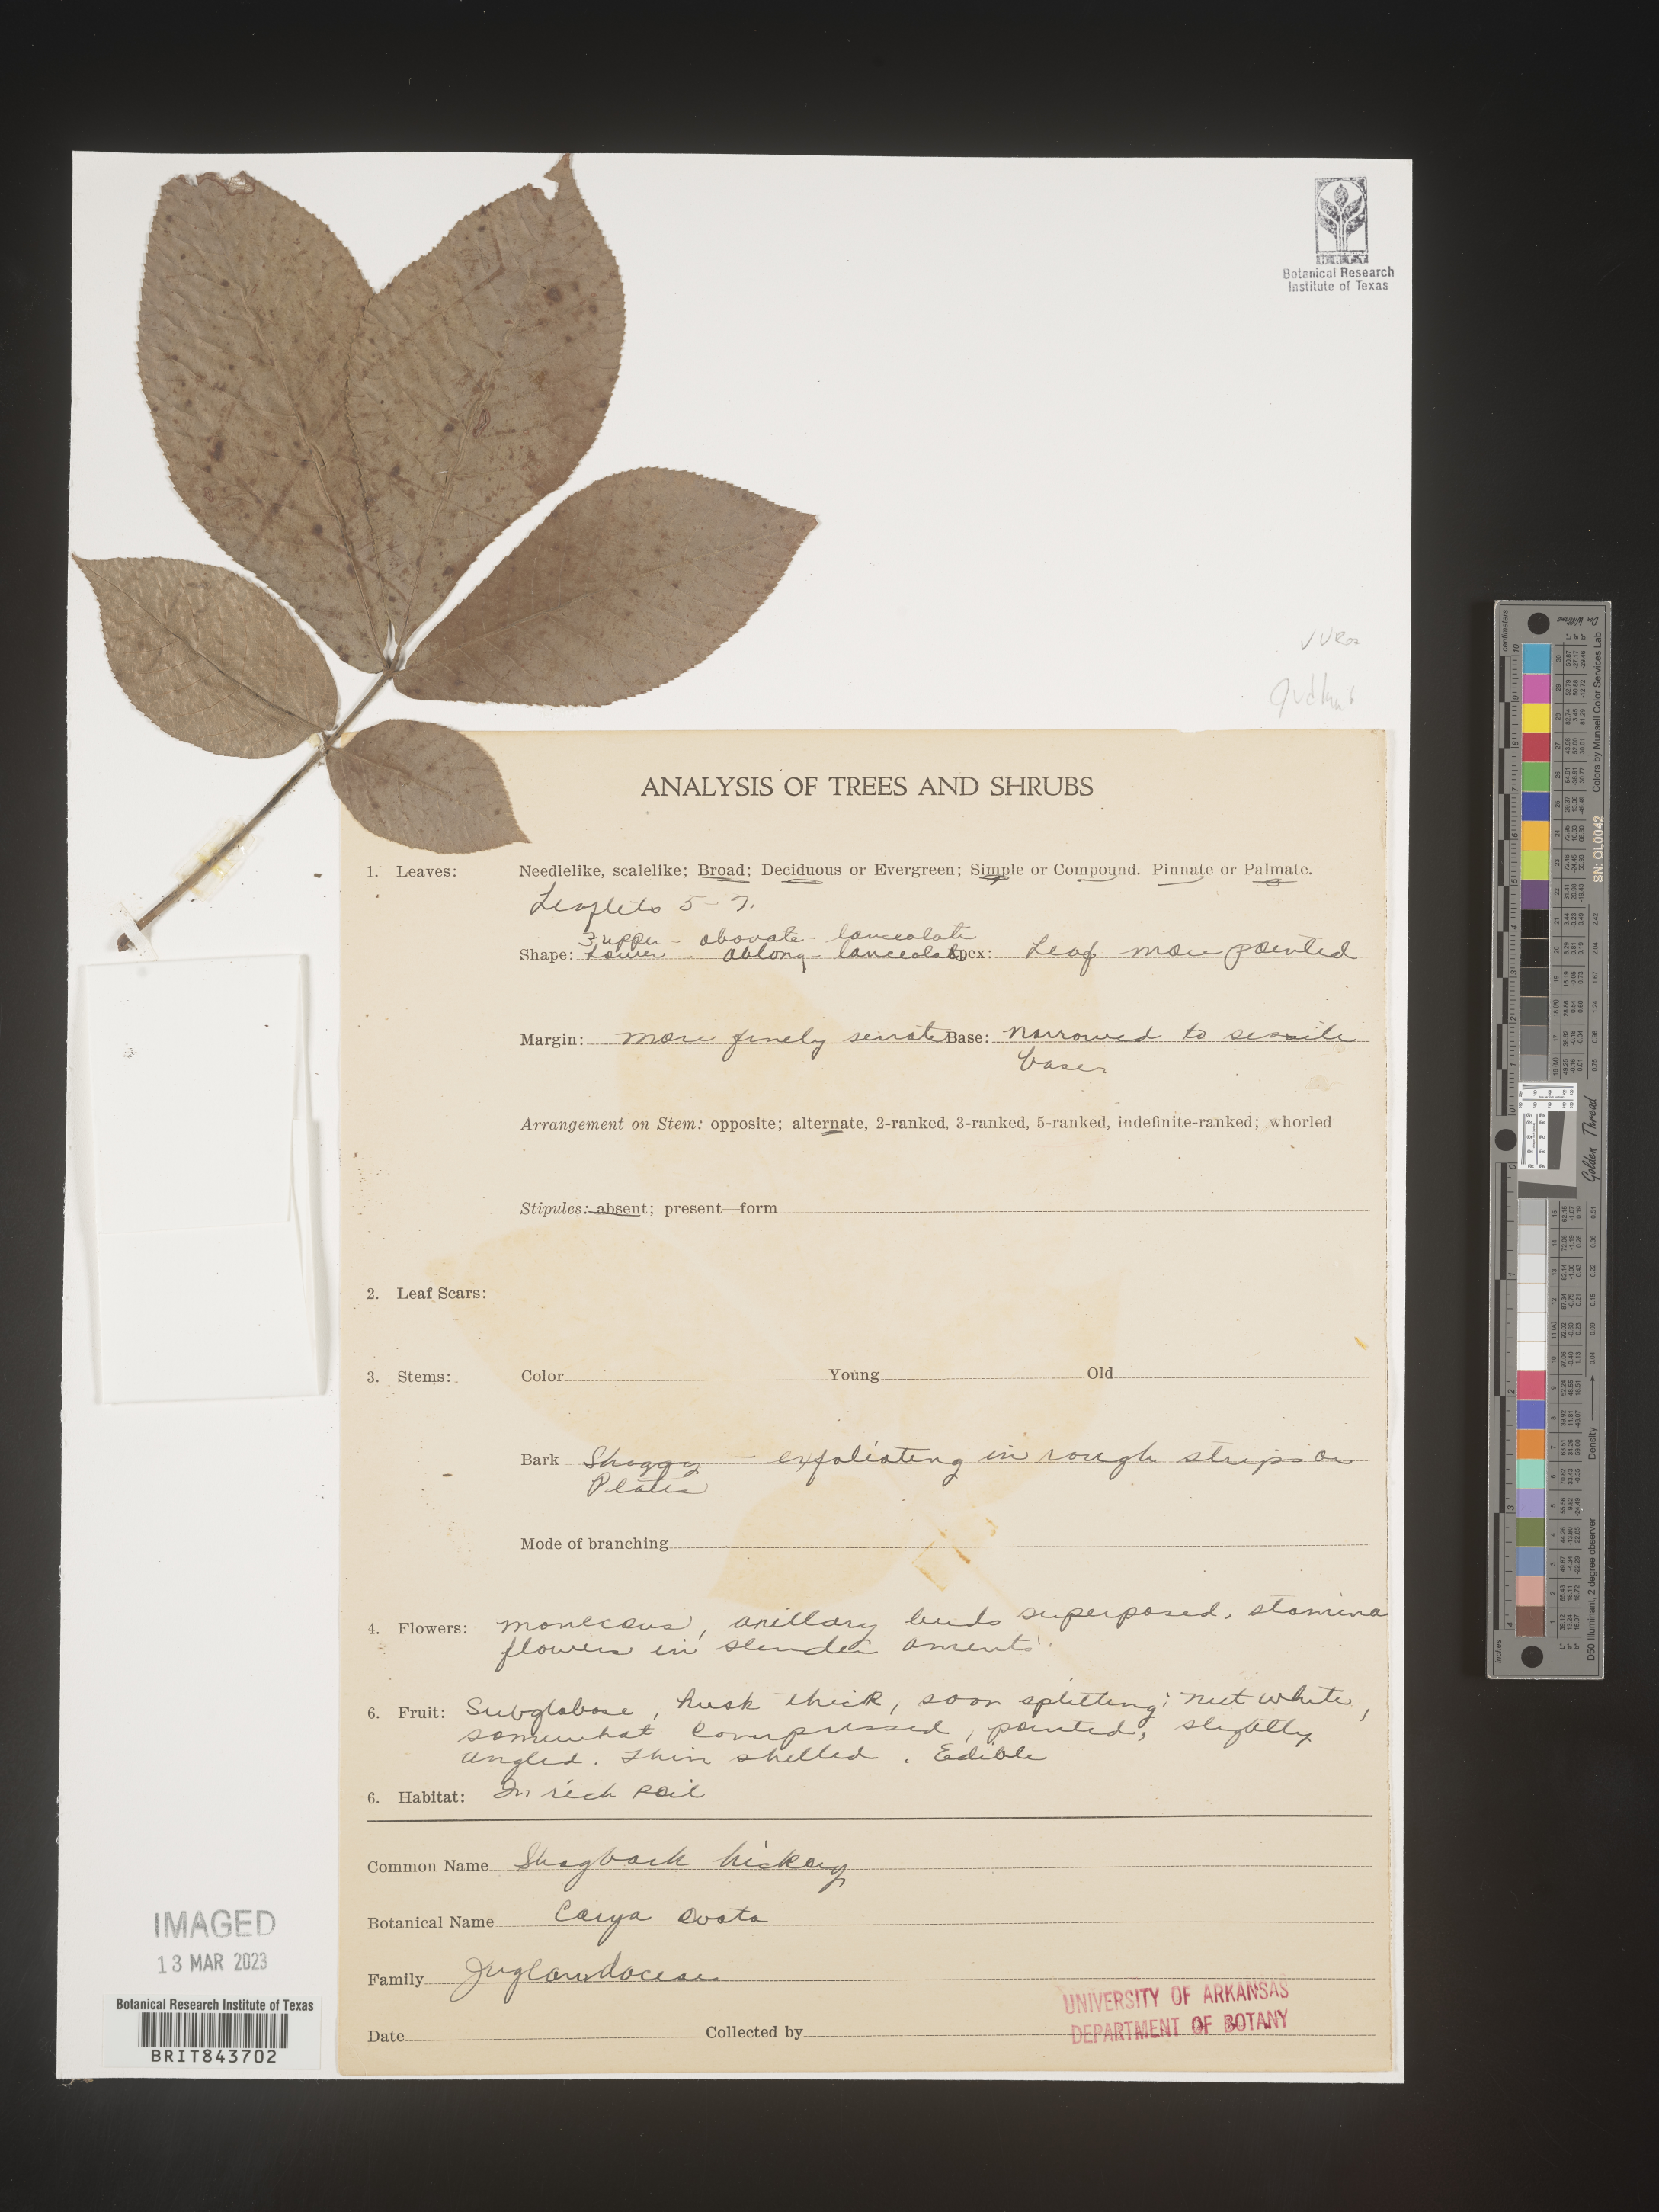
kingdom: Plantae
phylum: Tracheophyta
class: Magnoliopsida
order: Fagales
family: Juglandaceae
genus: Carya
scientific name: Carya ovata
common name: Shagbark hickory
